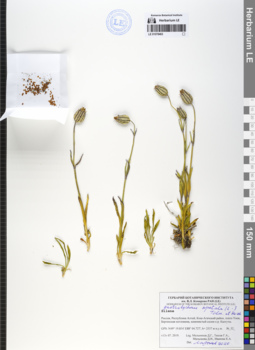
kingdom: Plantae
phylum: Tracheophyta
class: Magnoliopsida
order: Caryophyllales
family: Caryophyllaceae
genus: Silene
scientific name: Silene wahlbergella
